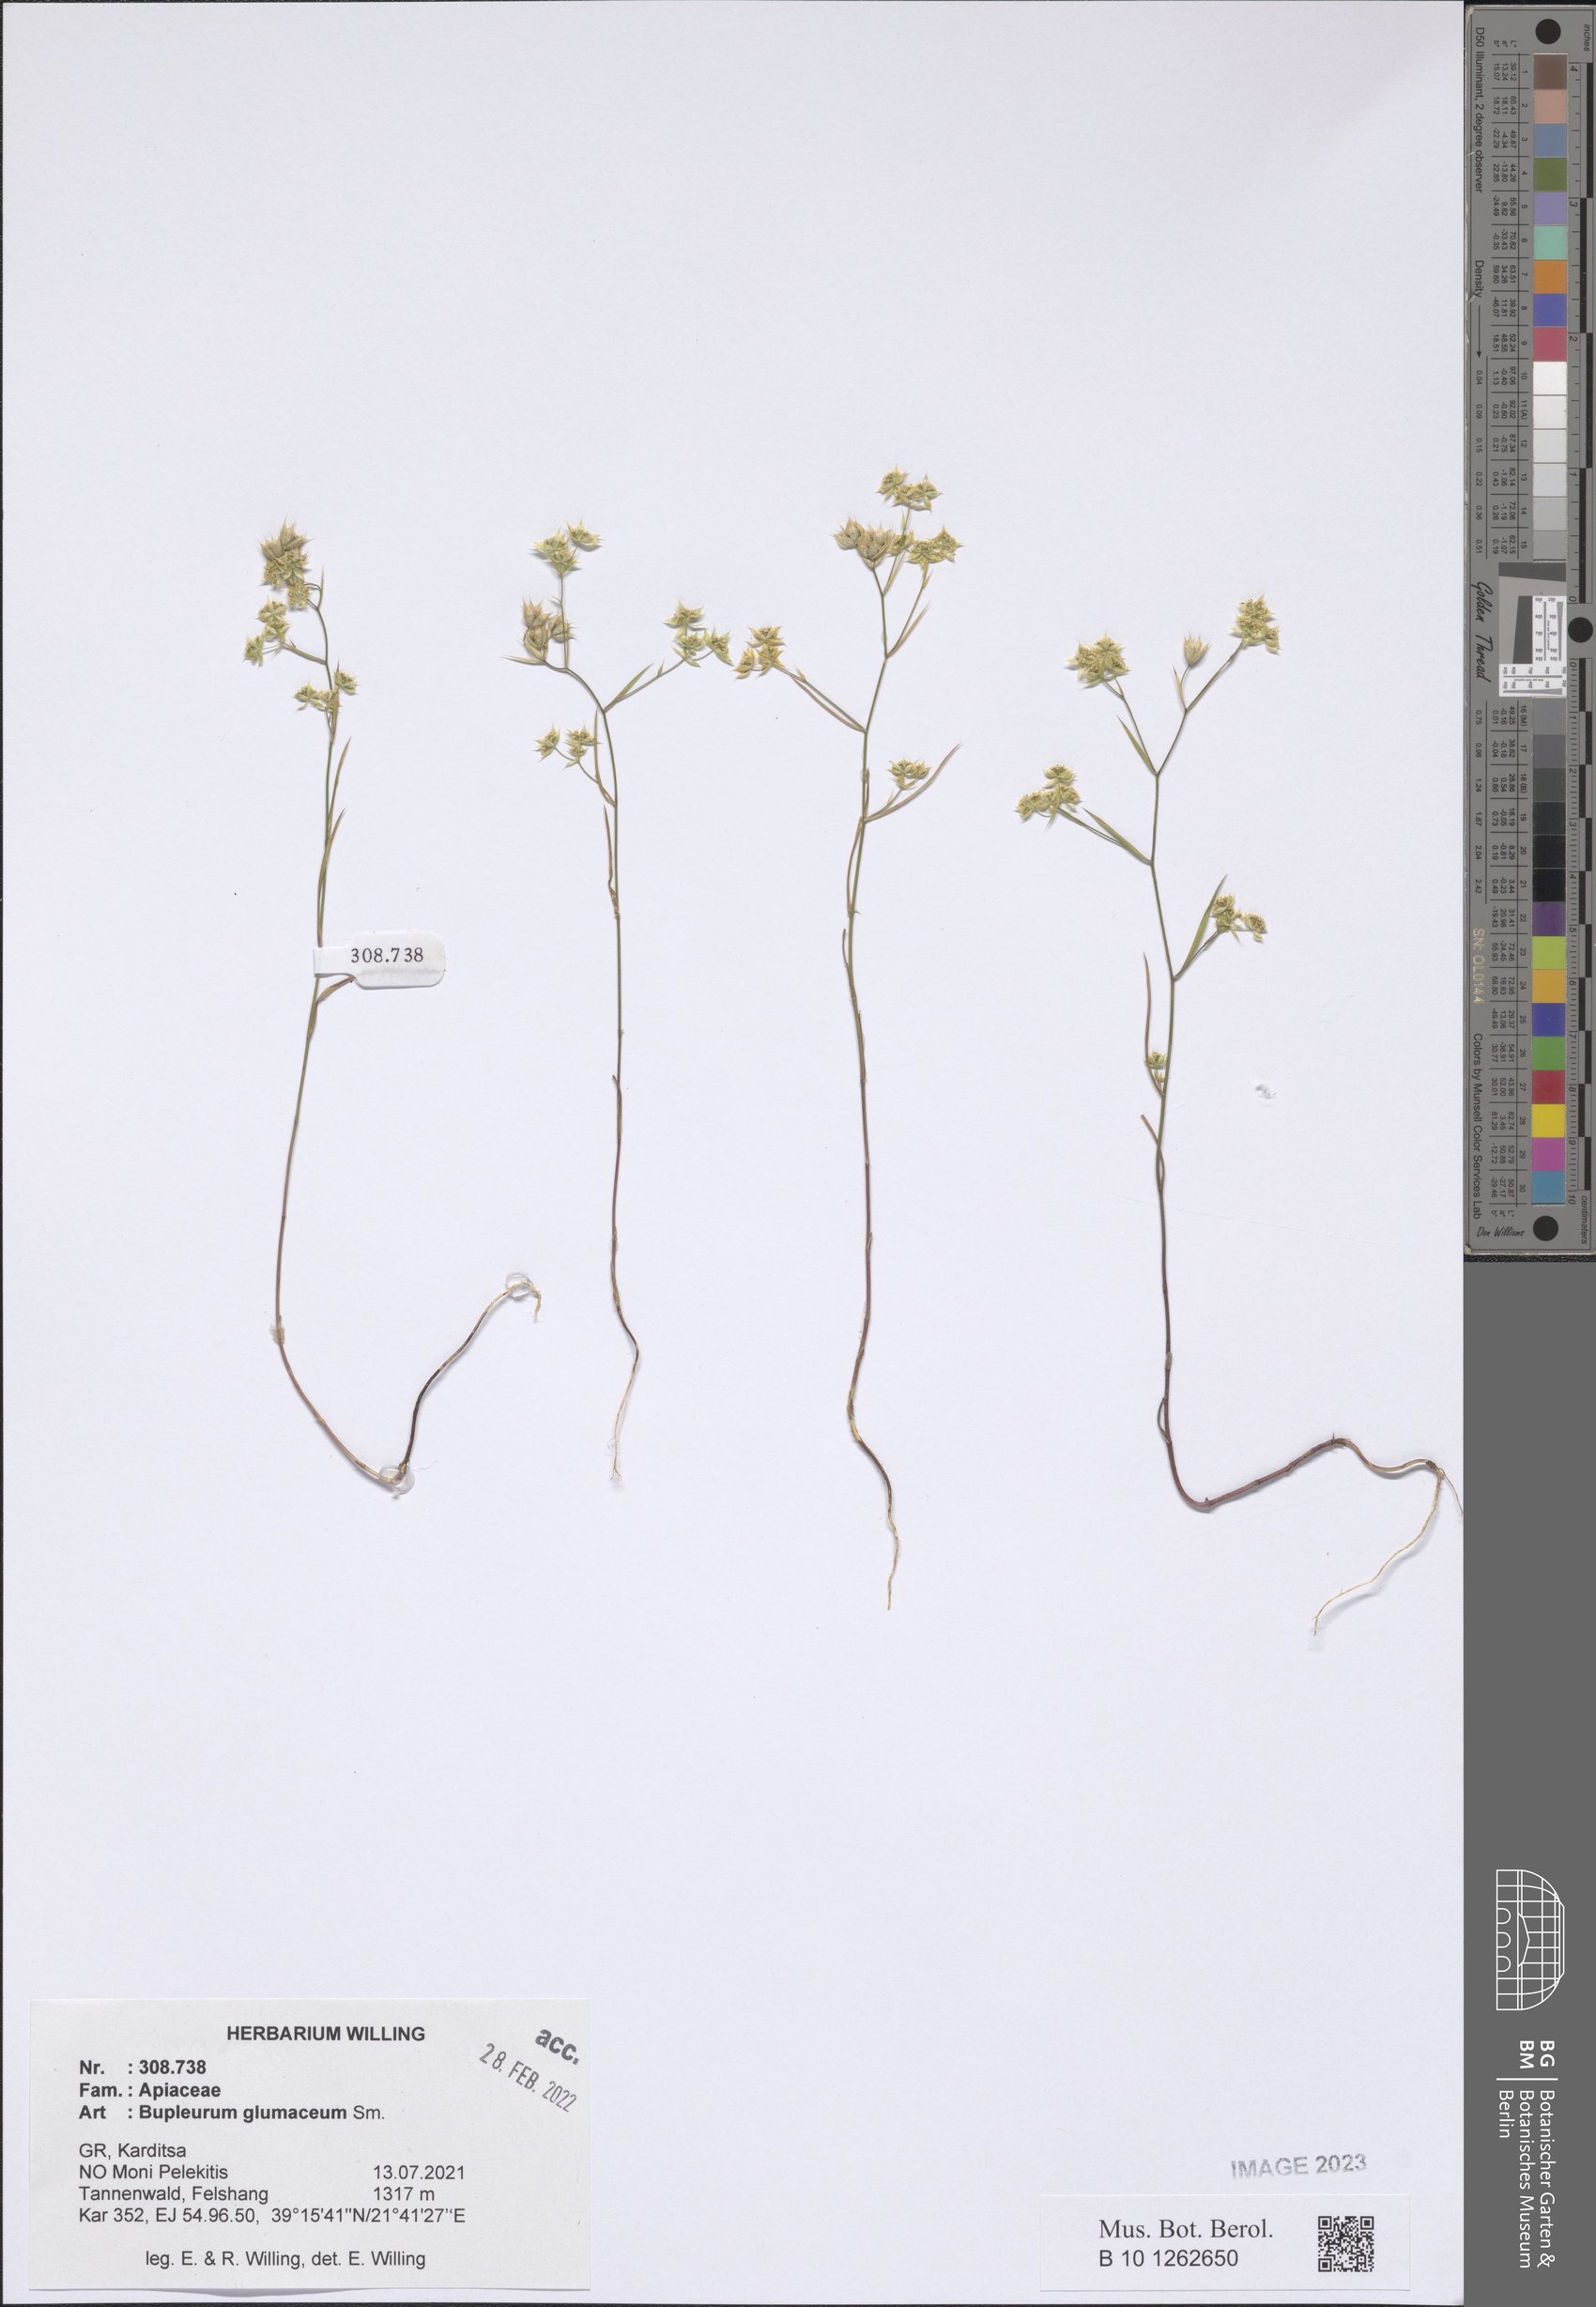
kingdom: Plantae
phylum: Tracheophyta
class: Magnoliopsida
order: Apiales
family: Apiaceae
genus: Bupleurum
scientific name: Bupleurum glumaceum
